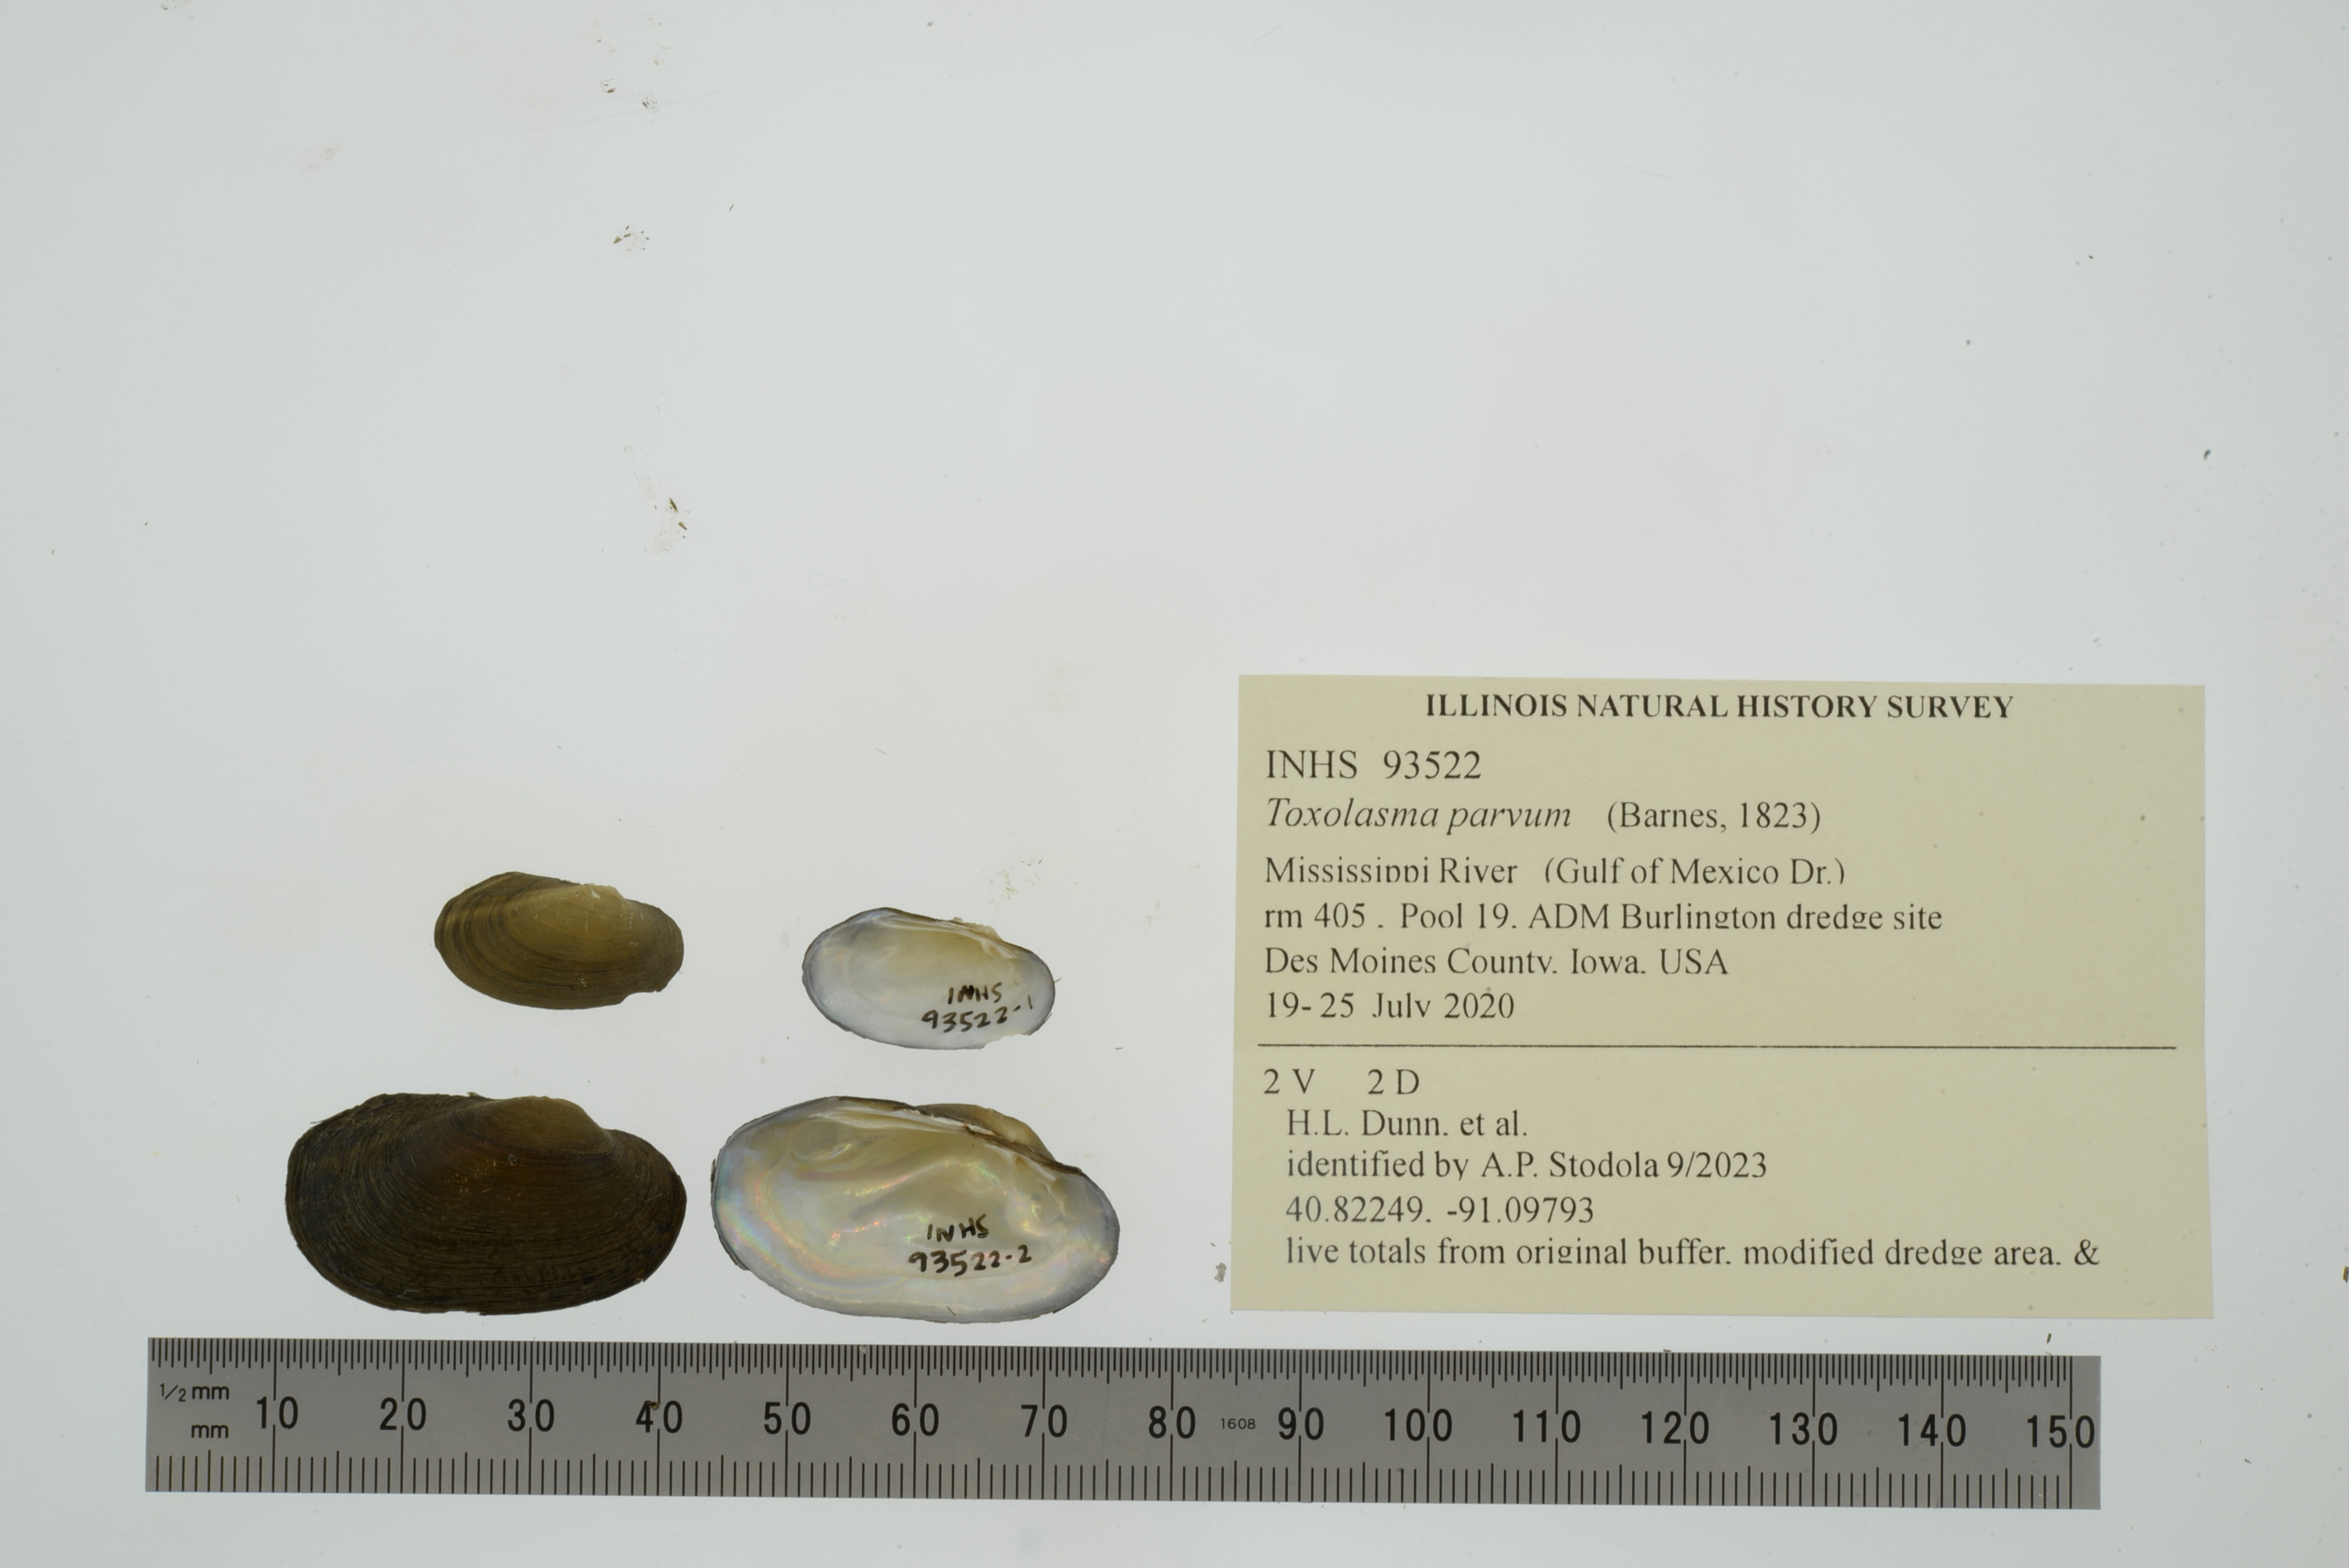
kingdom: Animalia
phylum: Mollusca
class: Bivalvia
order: Unionida
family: Unionidae
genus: Toxolasma
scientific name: Toxolasma parvum
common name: Lilliput
